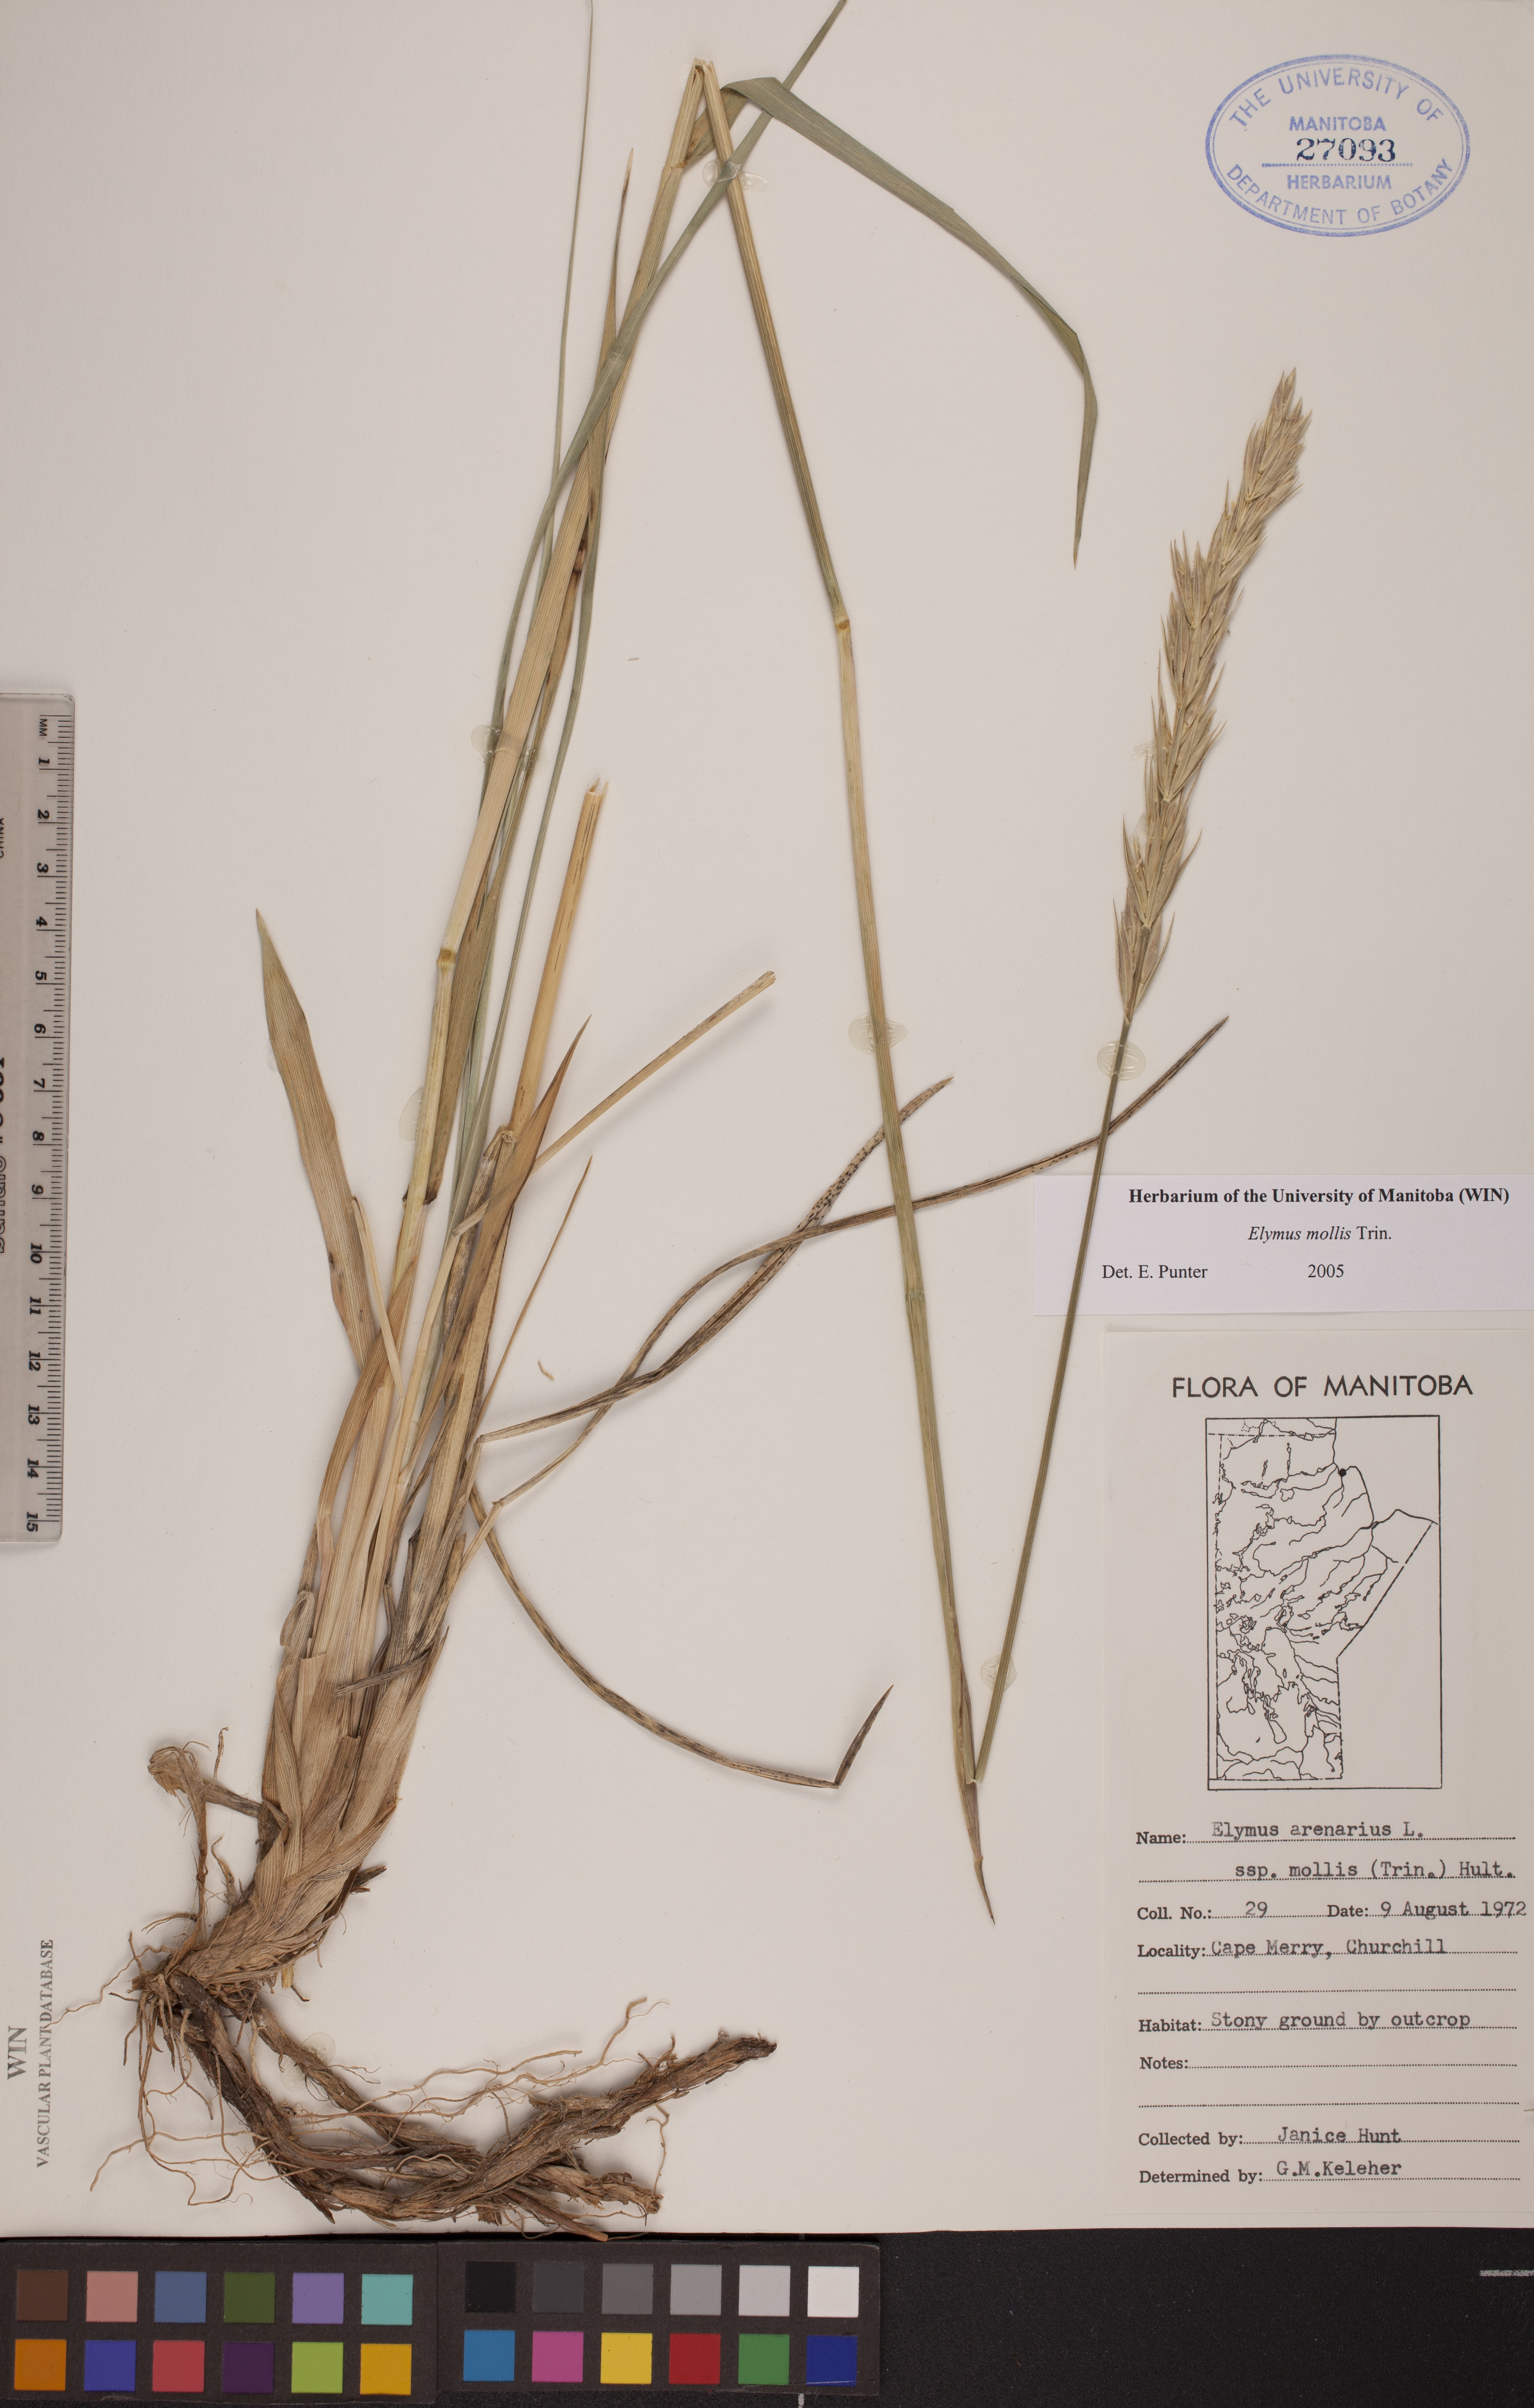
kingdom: Plantae
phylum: Tracheophyta
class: Liliopsida
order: Poales
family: Poaceae
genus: Leymus
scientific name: Leymus mollis
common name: American dune grass
